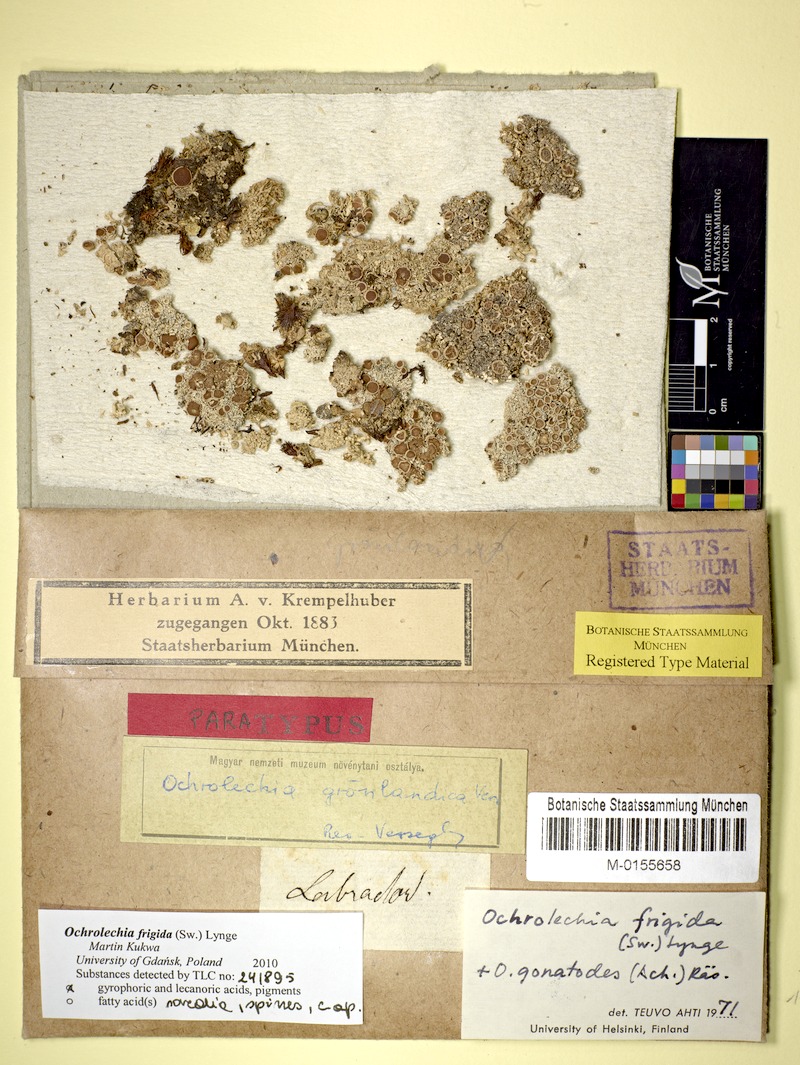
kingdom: Fungi
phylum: Ascomycota
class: Lecanoromycetes
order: Pertusariales
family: Ochrolechiaceae
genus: Ochrolechia
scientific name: Ochrolechia frigida
